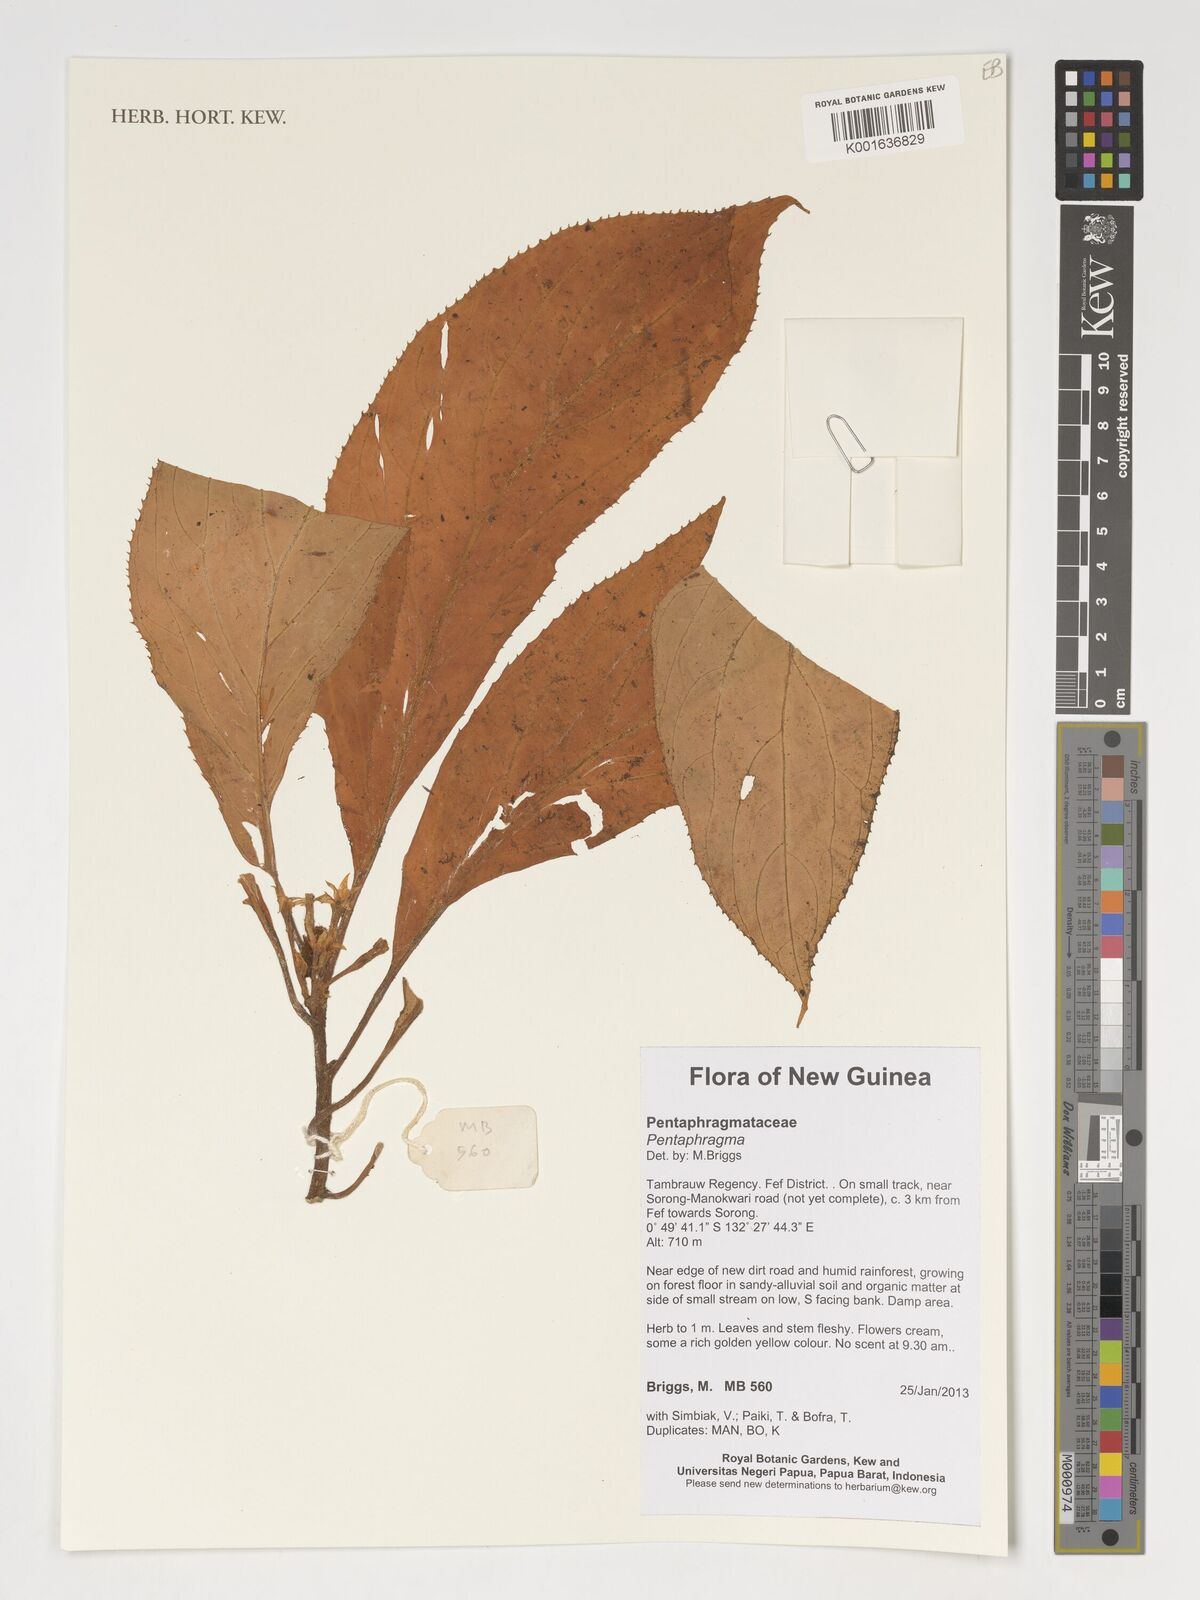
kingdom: Plantae
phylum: Tracheophyta
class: Magnoliopsida
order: Asterales
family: Pentaphragmataceae
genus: Pentaphragma
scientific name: Pentaphragma
